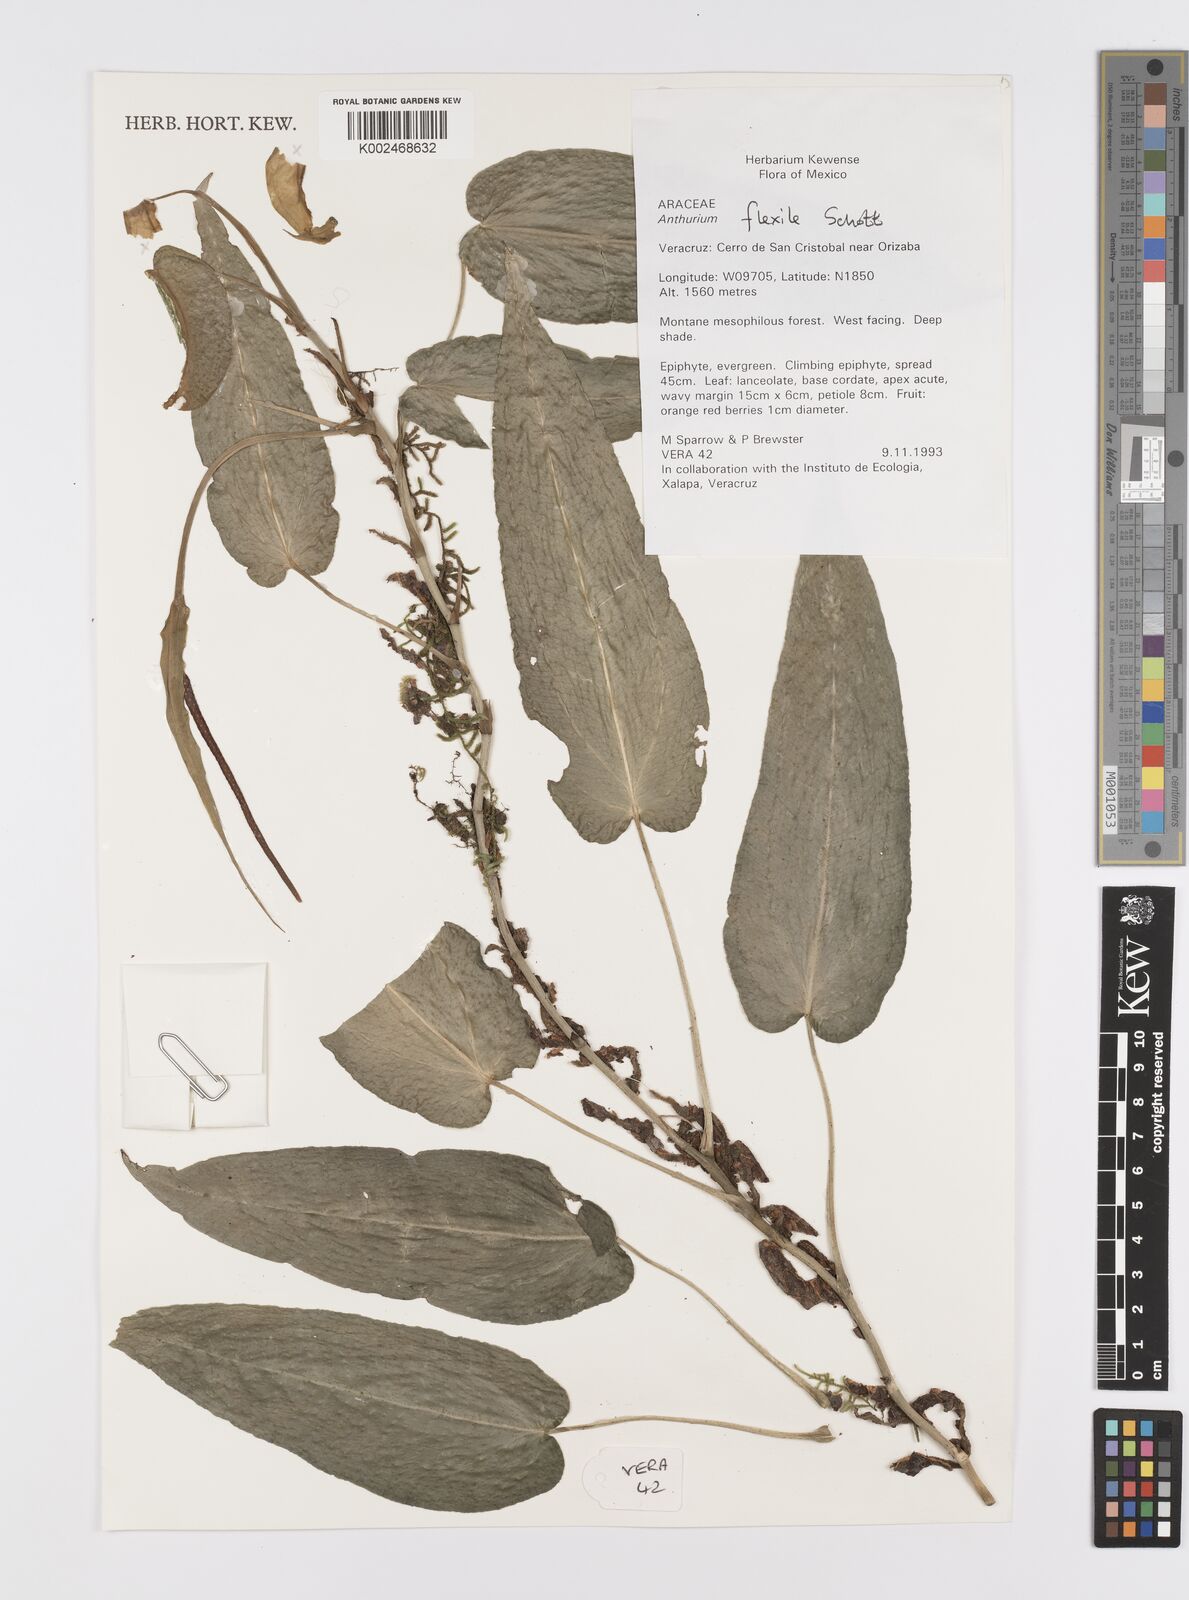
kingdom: Plantae
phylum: Tracheophyta
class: Liliopsida
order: Alismatales
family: Araceae
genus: Anthurium
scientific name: Anthurium flexile
